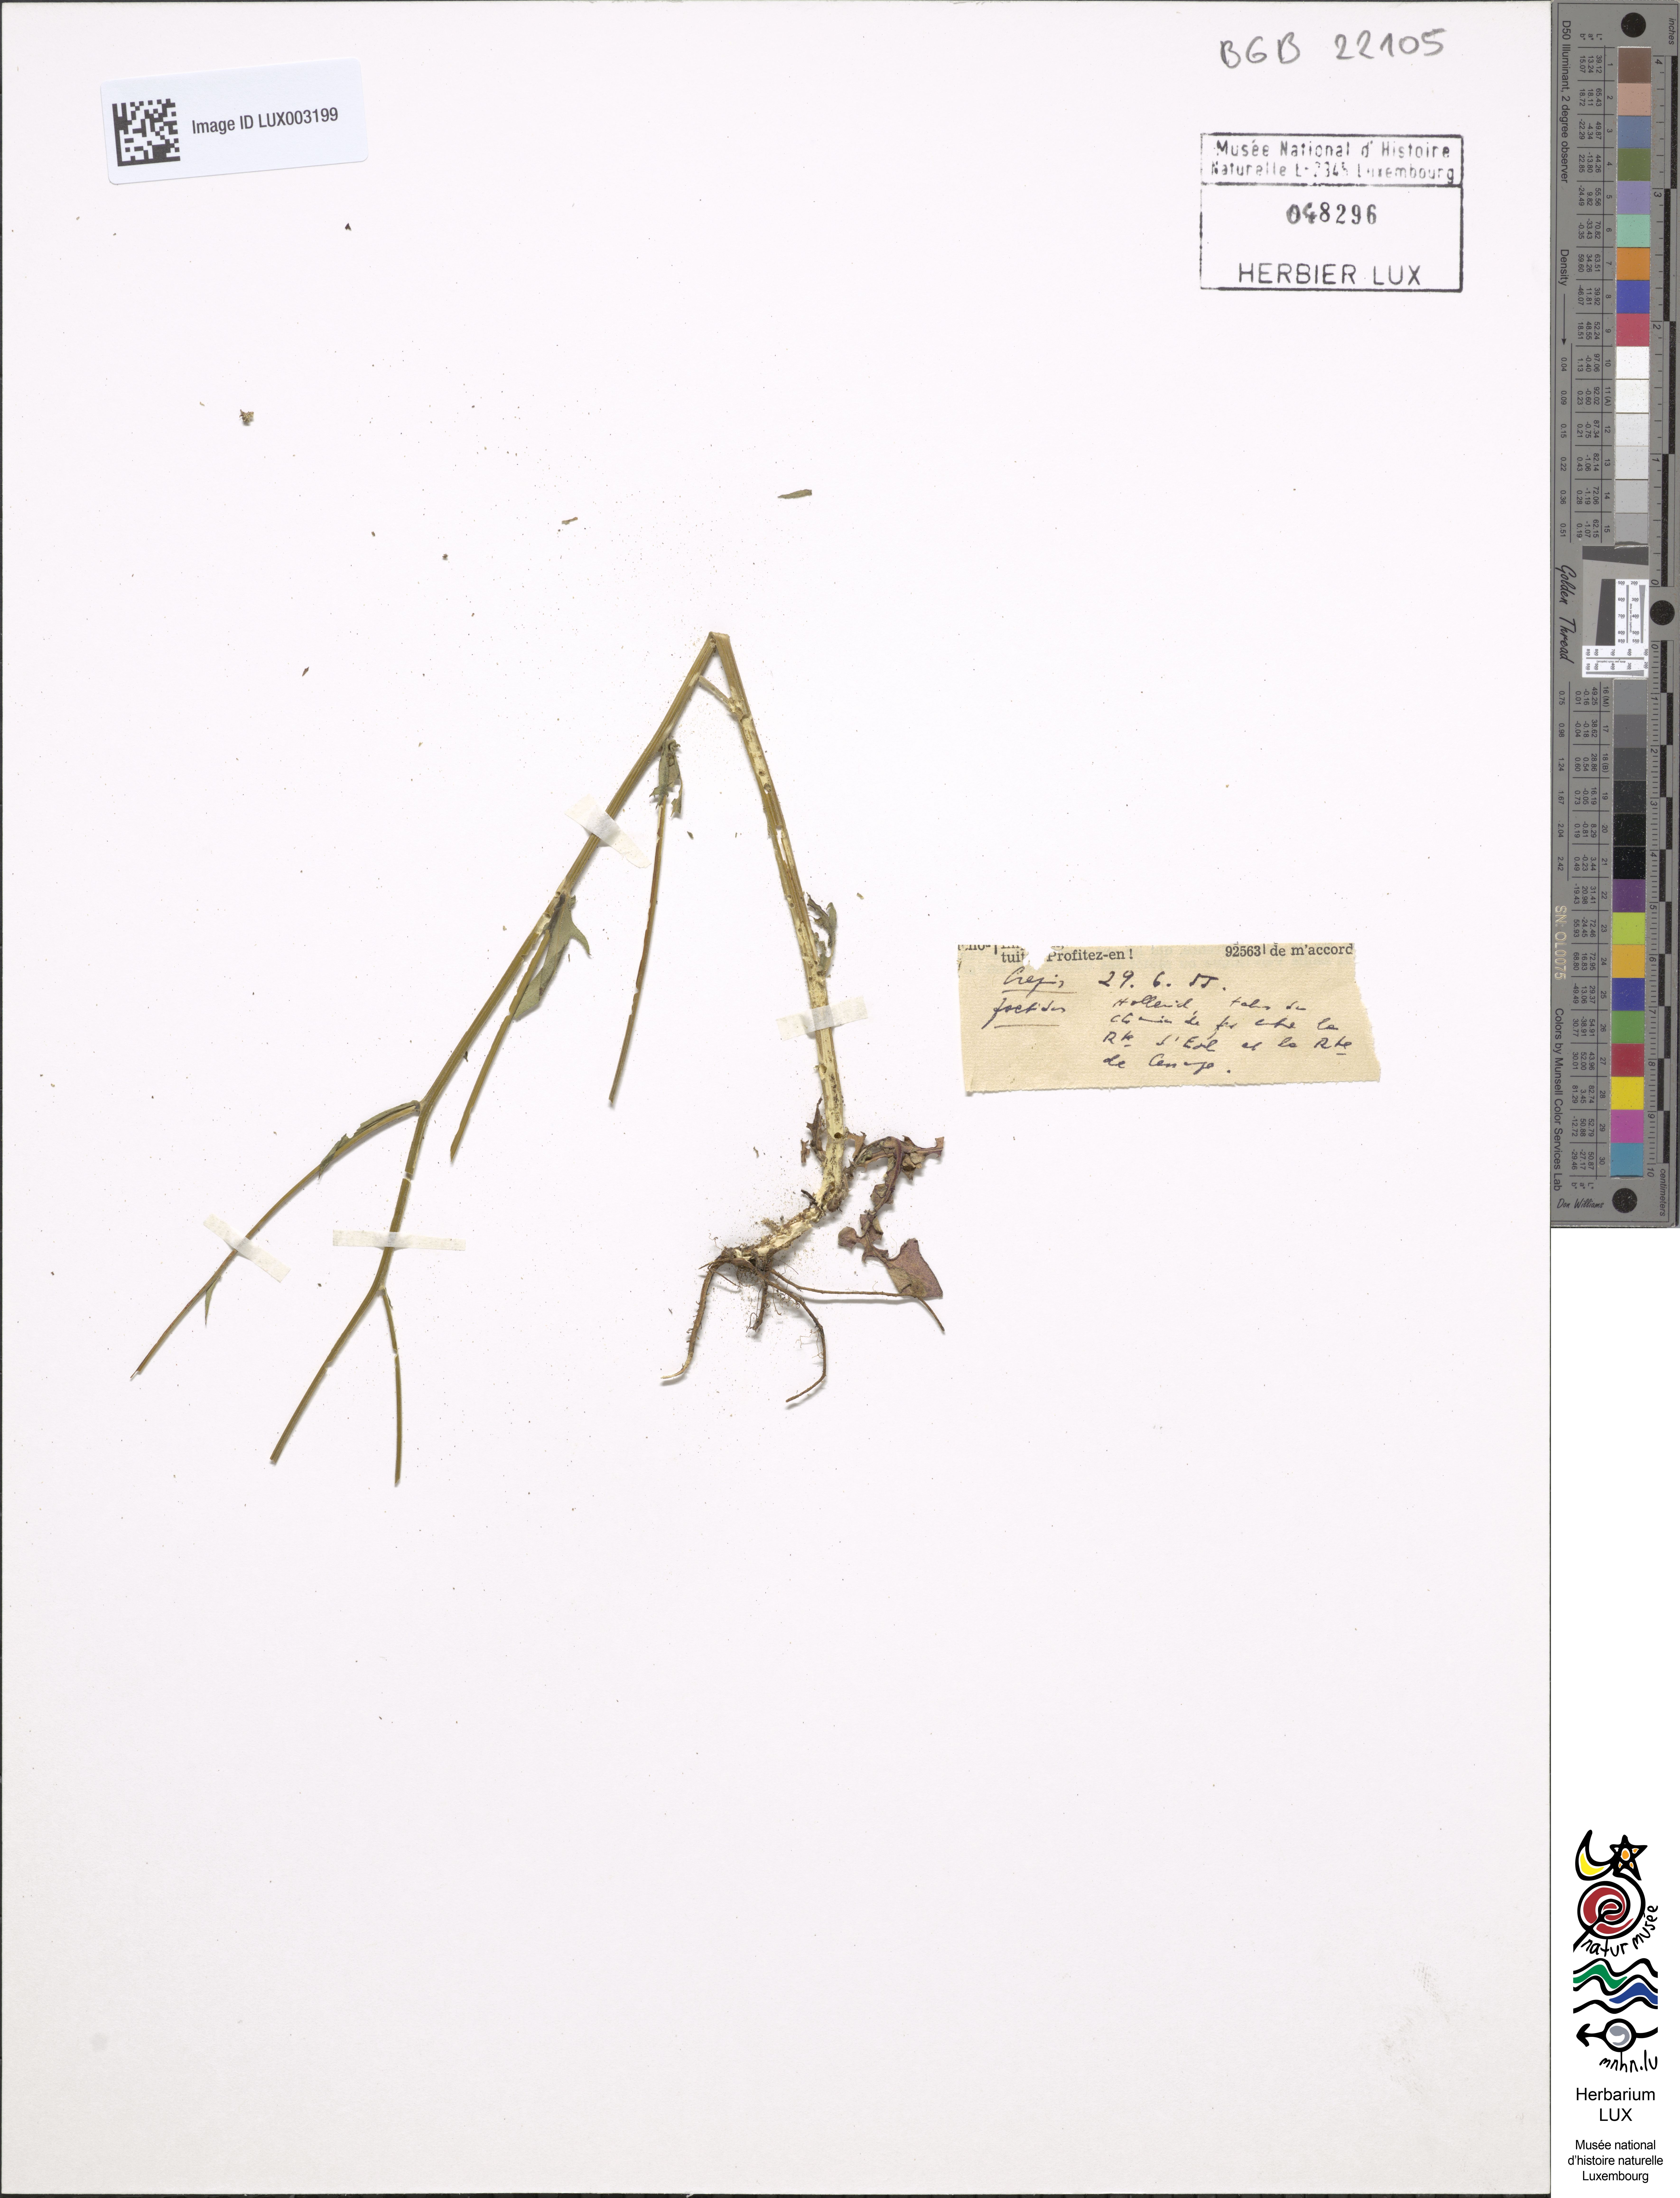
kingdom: Plantae
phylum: Tracheophyta
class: Magnoliopsida
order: Asterales
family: Asteraceae
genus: Crepis
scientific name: Crepis foetida
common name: Stinking hawk's-beard
